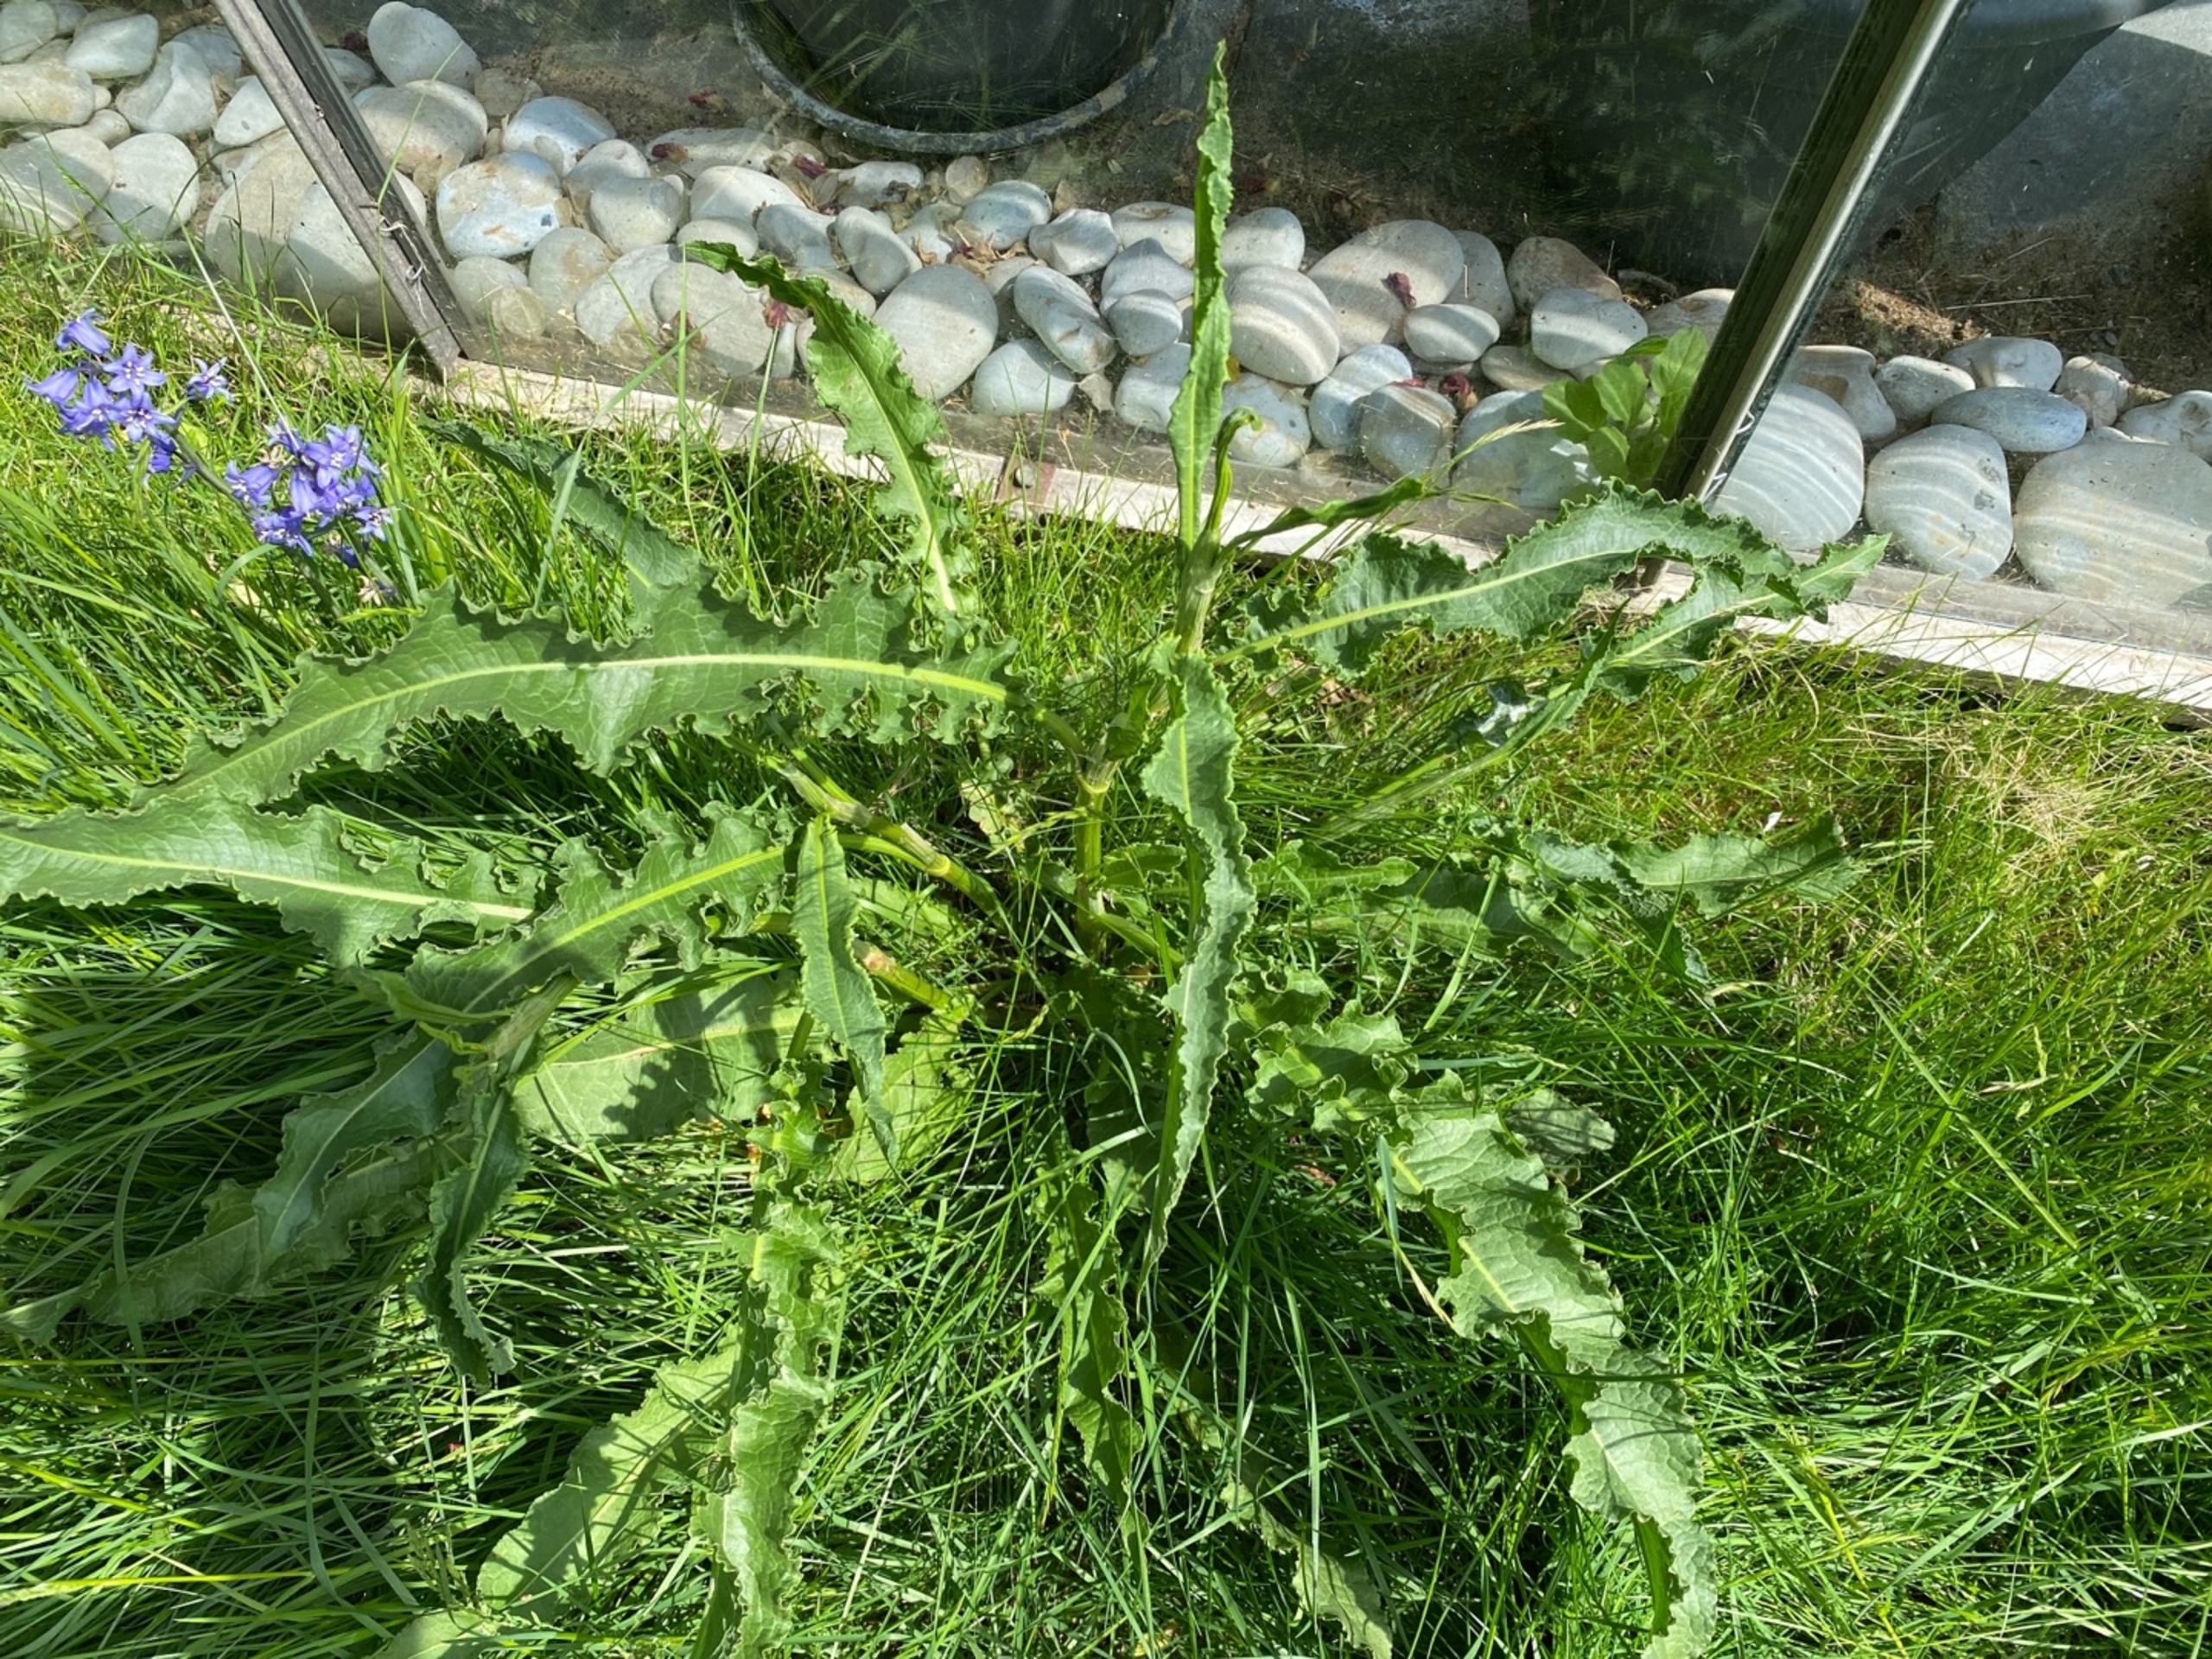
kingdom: Plantae
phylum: Tracheophyta
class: Magnoliopsida
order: Caryophyllales
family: Polygonaceae
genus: Rumex
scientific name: Rumex crispus
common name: Kruset skræppe
